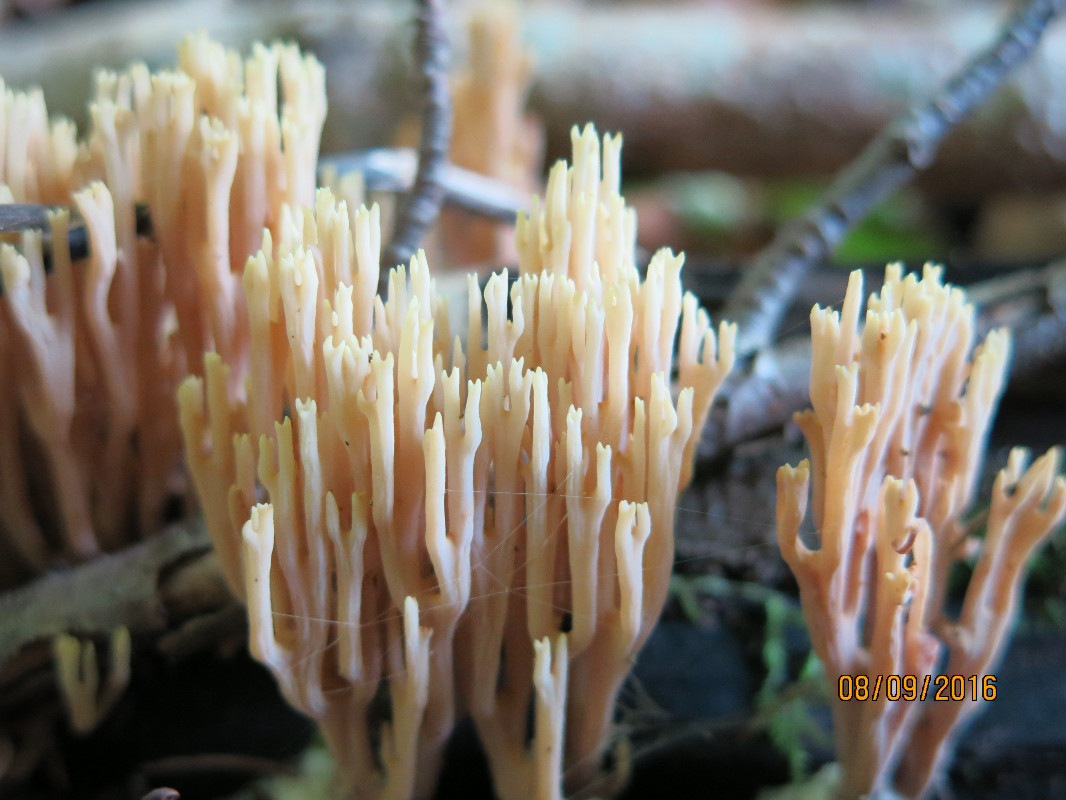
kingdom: Fungi
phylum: Basidiomycota
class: Agaricomycetes
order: Gomphales
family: Gomphaceae
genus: Ramaria
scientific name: Ramaria stricta
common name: rank koralsvamp
